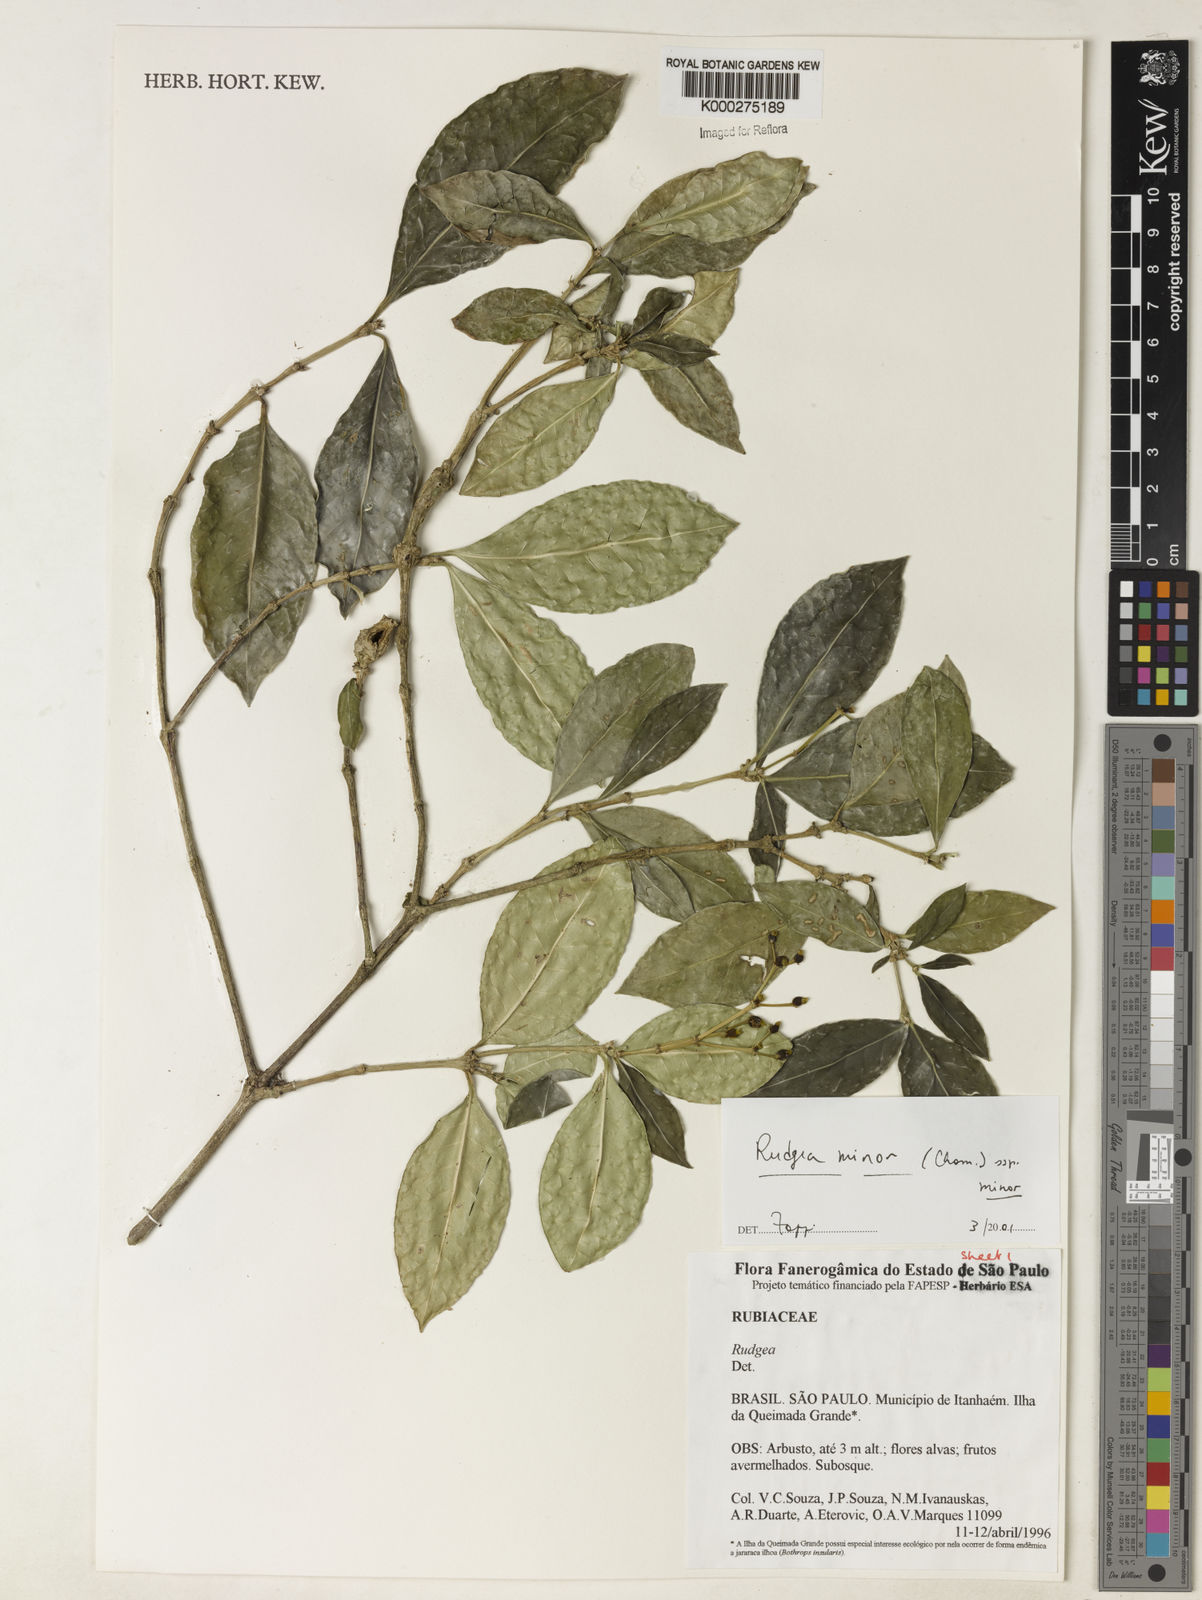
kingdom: Plantae
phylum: Tracheophyta
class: Magnoliopsida
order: Gentianales
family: Rubiaceae
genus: Rudgea
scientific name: Rudgea minor
